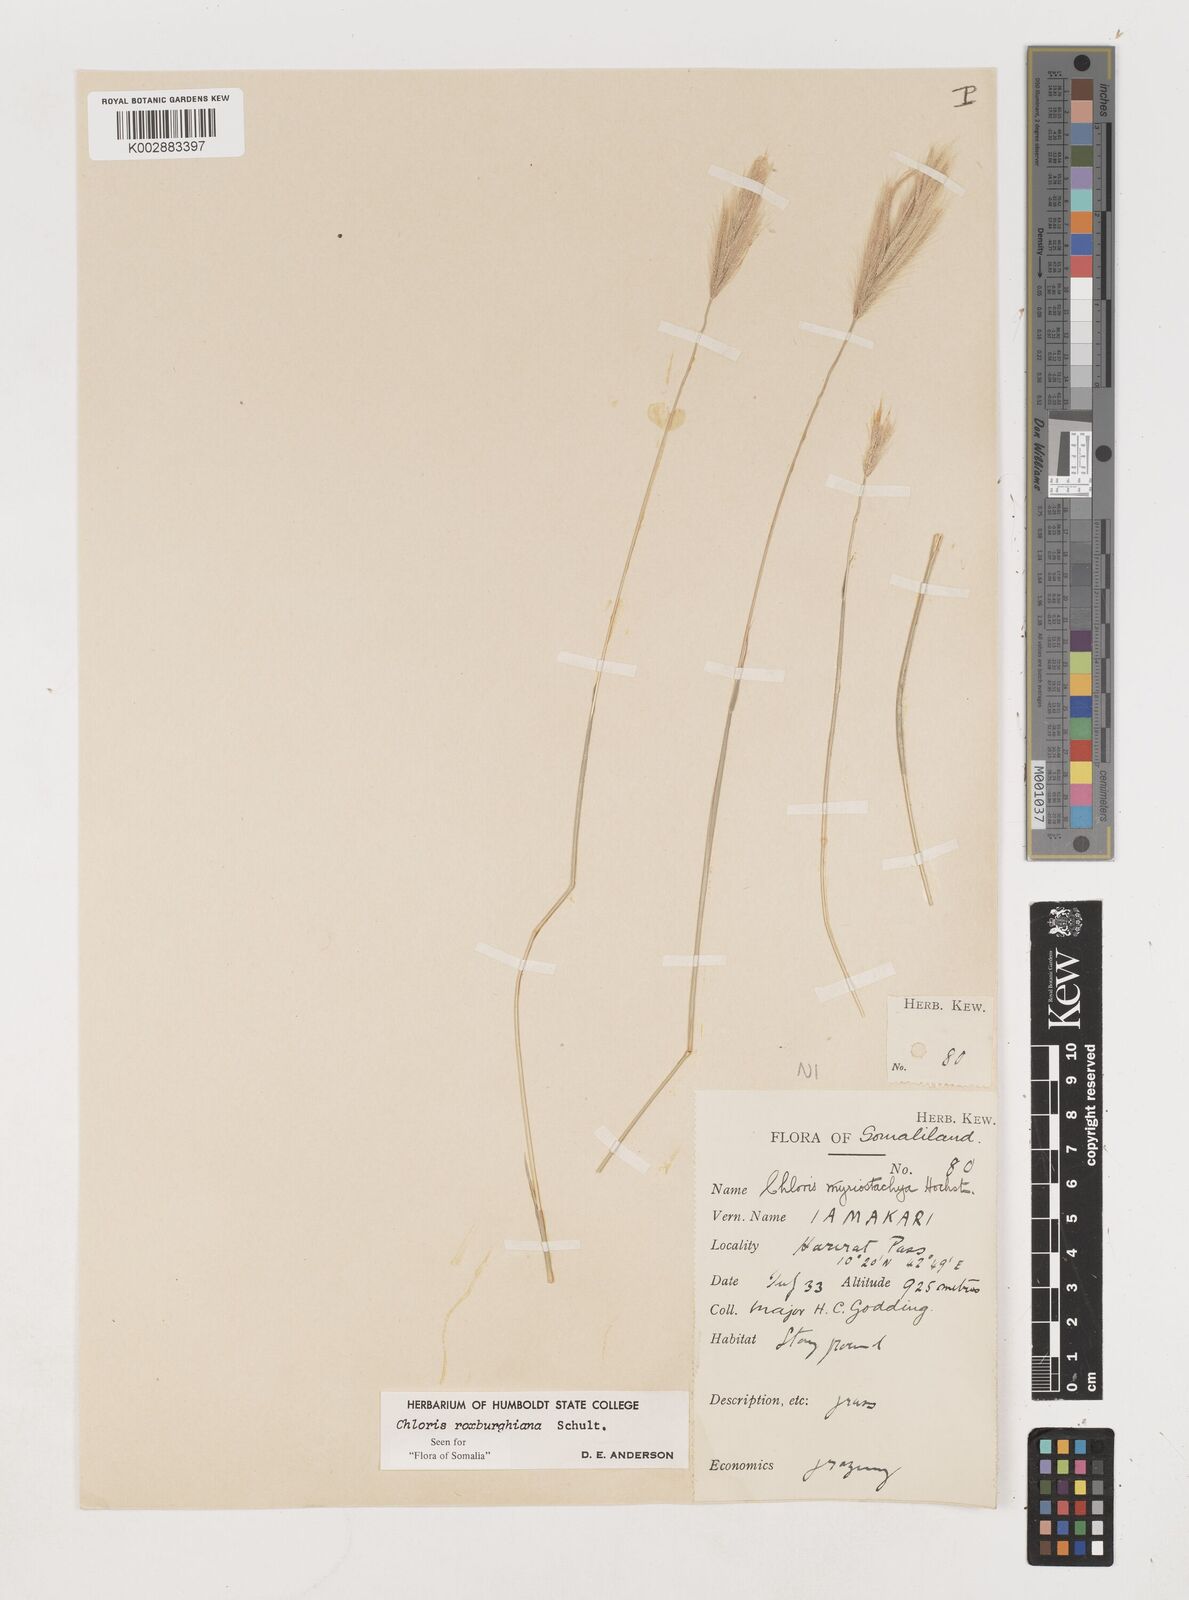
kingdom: Plantae
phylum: Tracheophyta
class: Liliopsida
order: Poales
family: Poaceae
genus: Tetrapogon
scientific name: Tetrapogon roxburghiana
